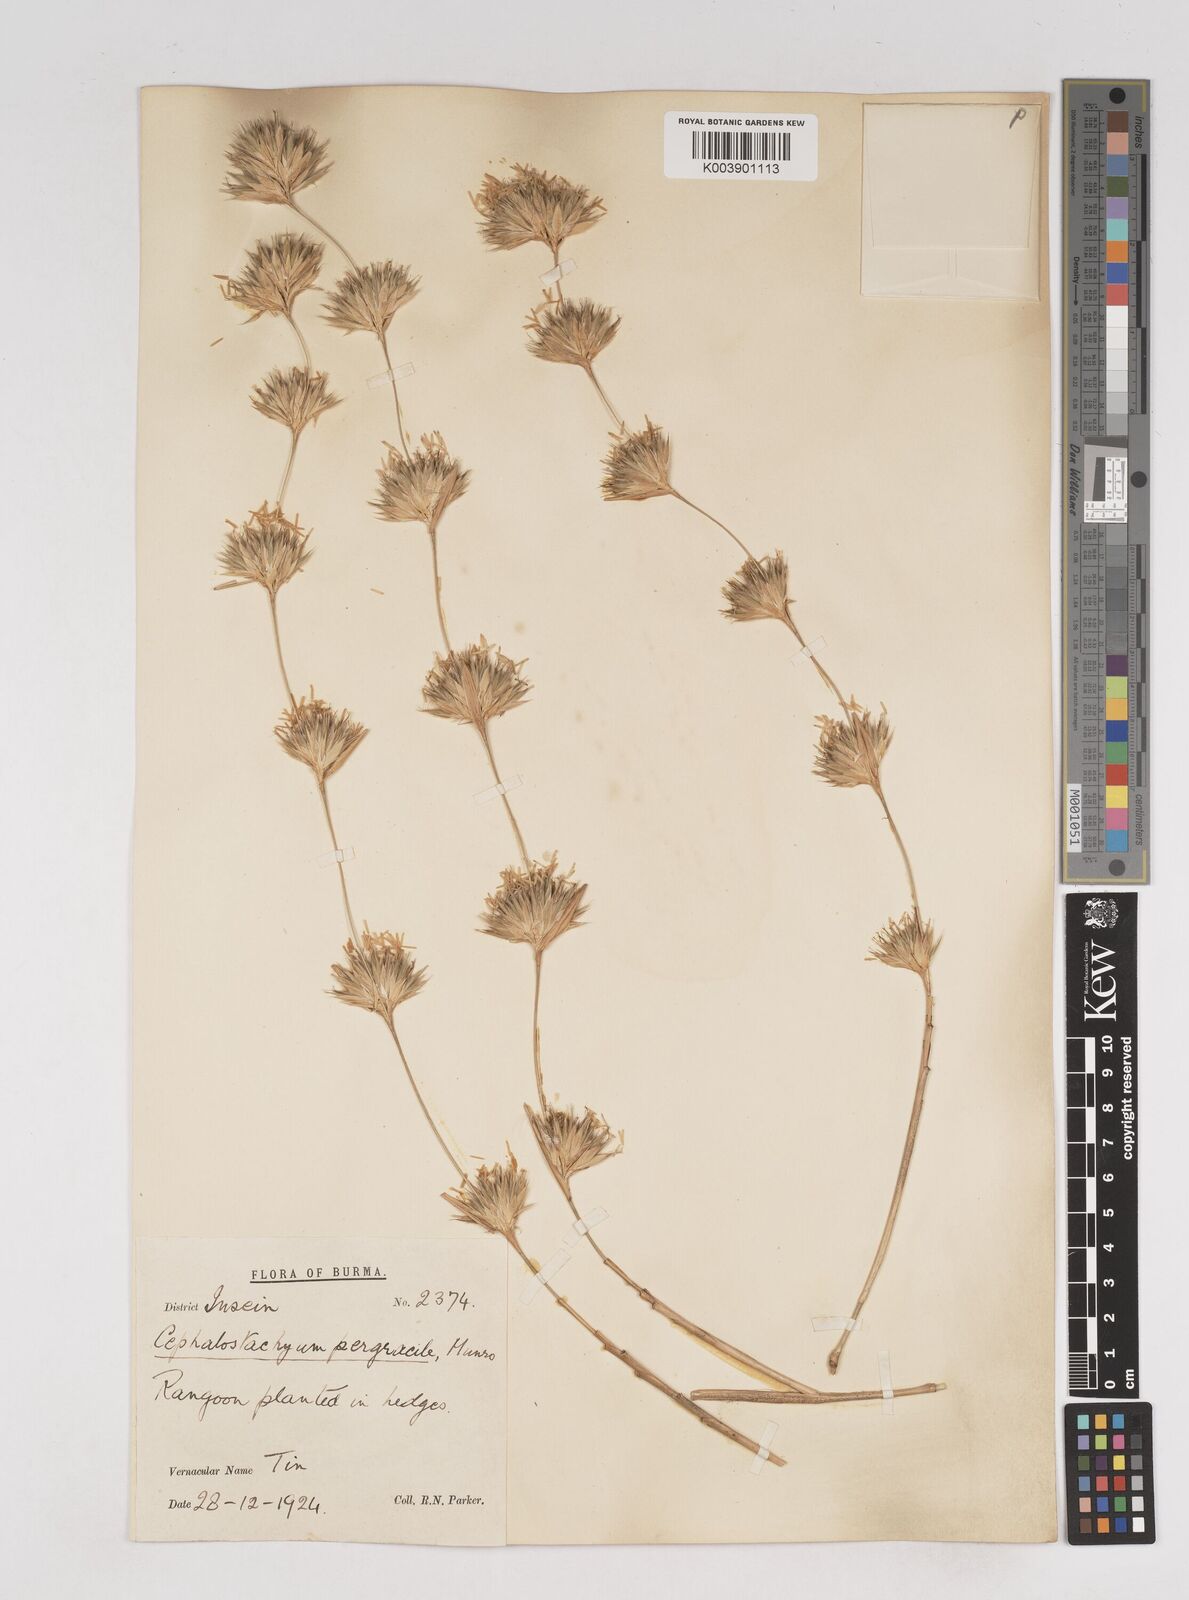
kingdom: Plantae
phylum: Tracheophyta
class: Liliopsida
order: Poales
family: Poaceae
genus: Schizostachyum
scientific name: Schizostachyum pergracile
